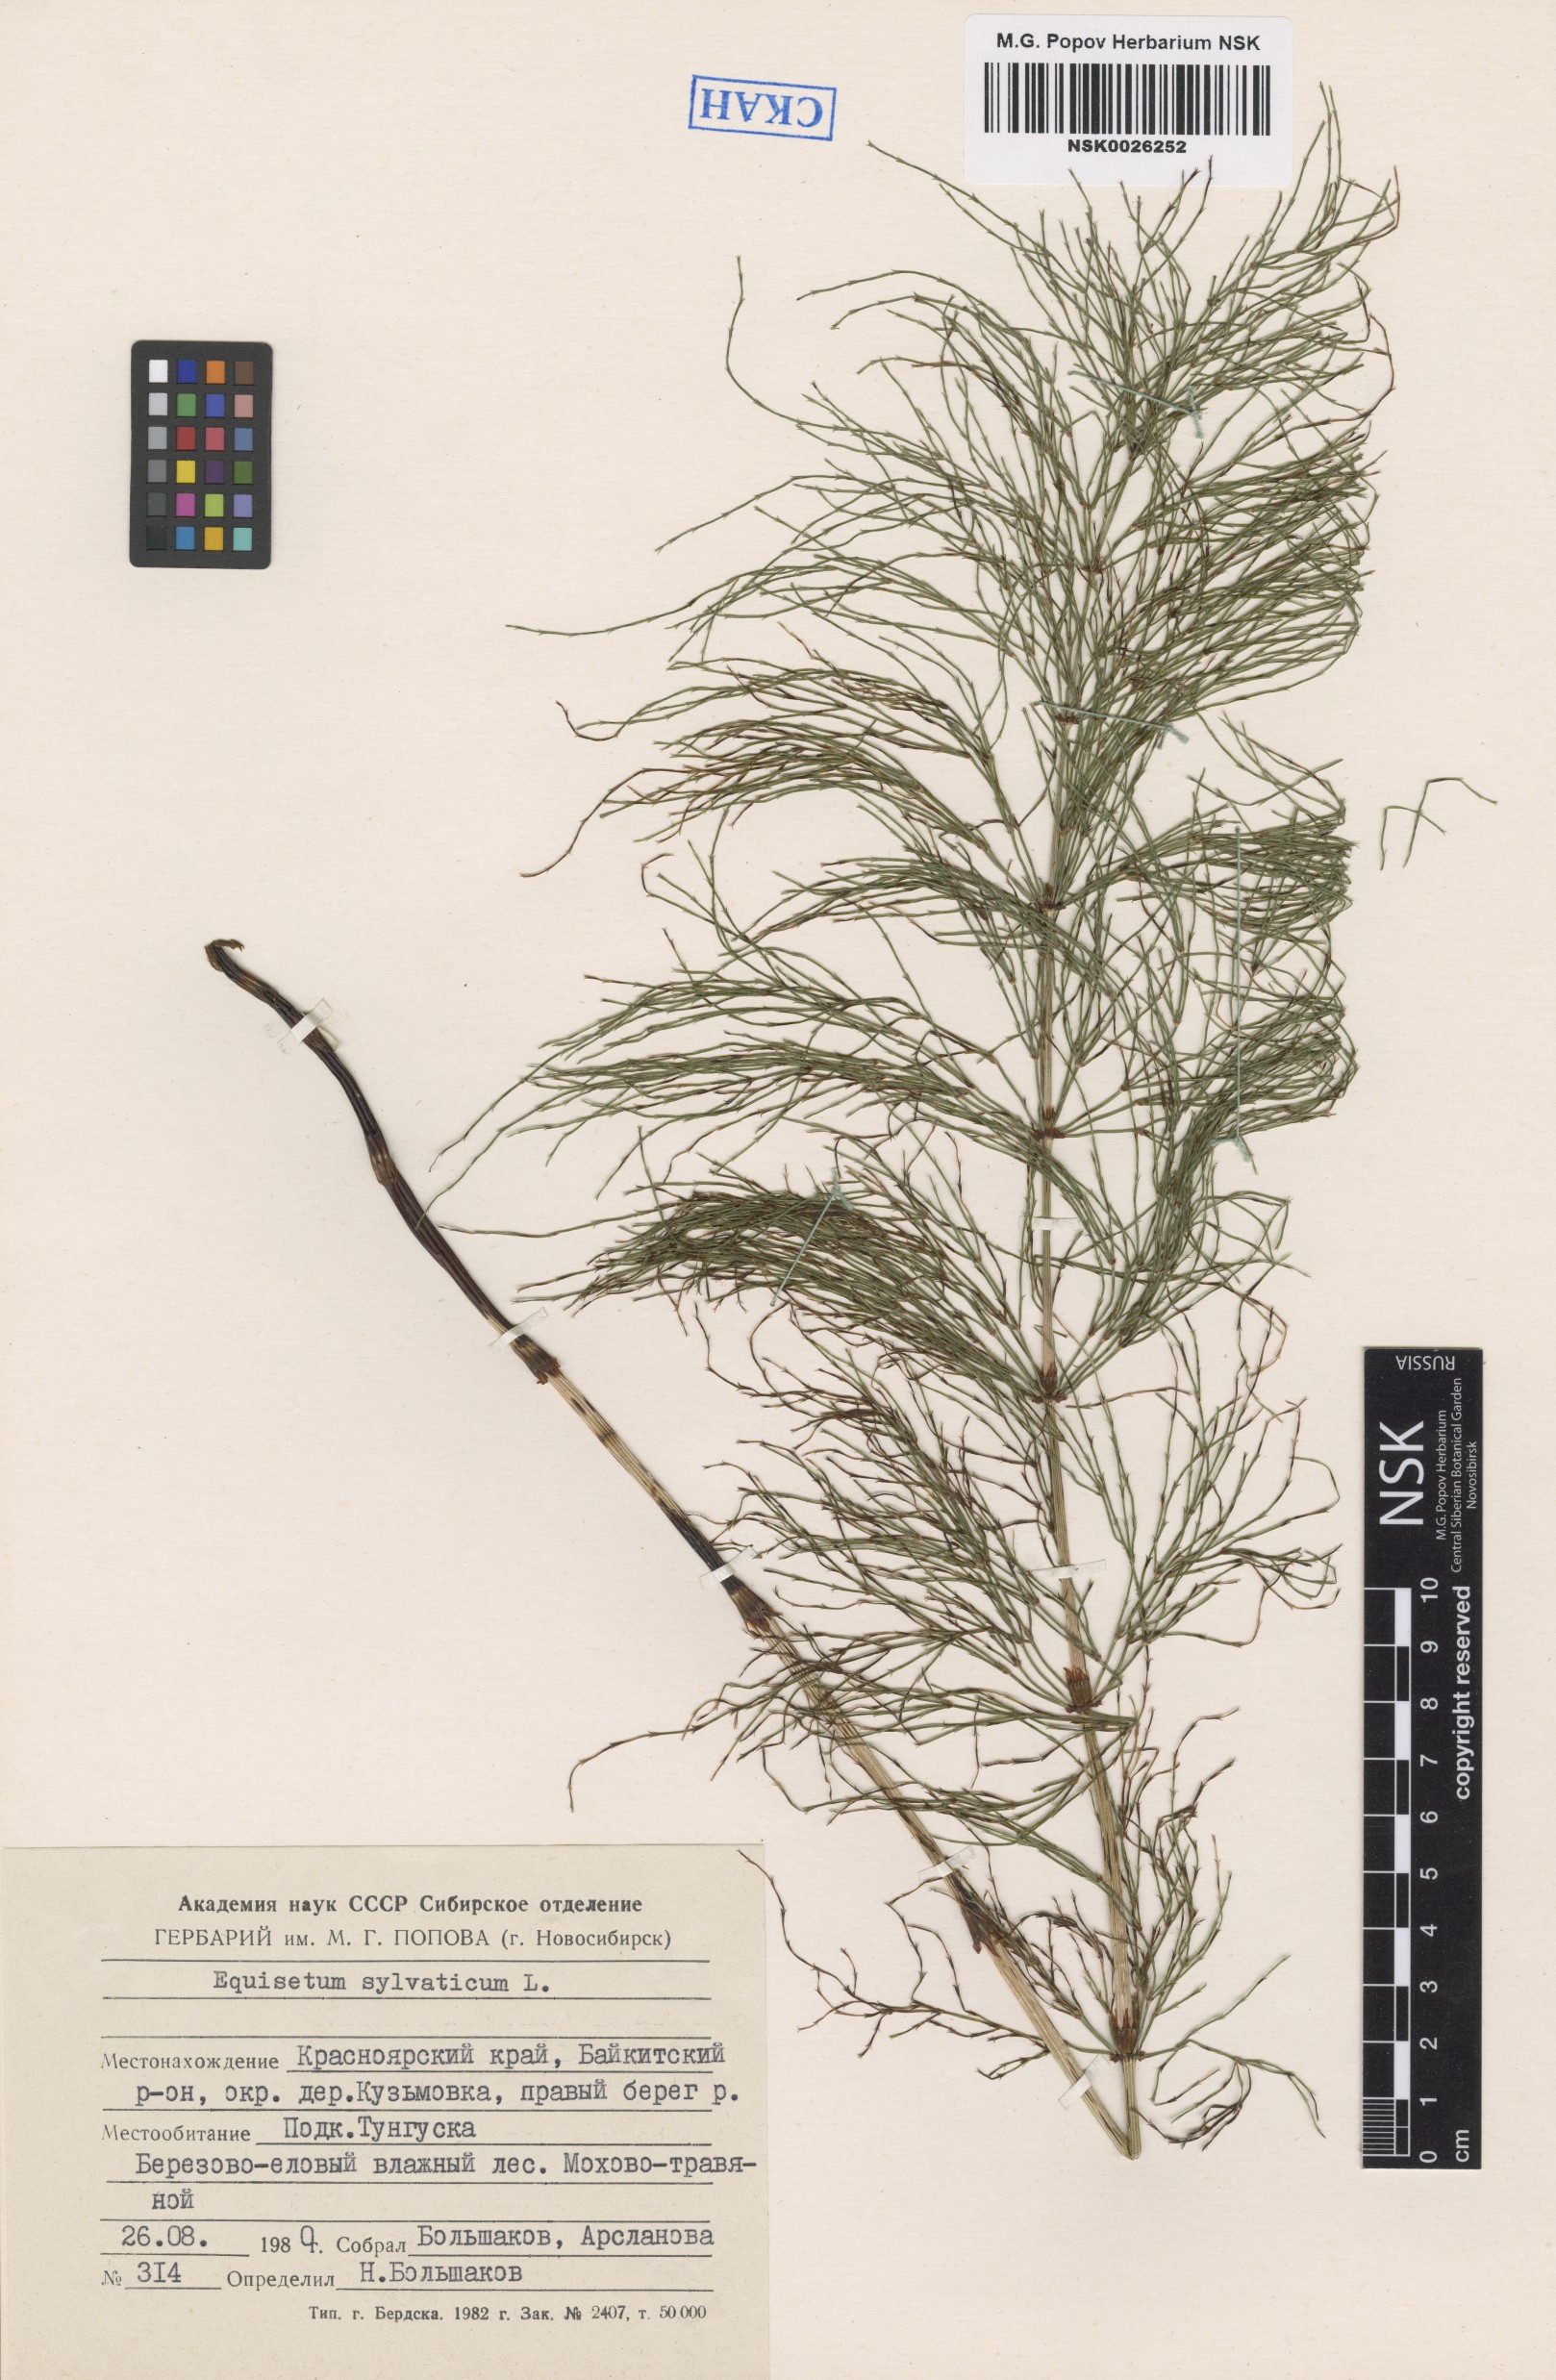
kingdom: Plantae
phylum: Tracheophyta
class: Polypodiopsida
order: Equisetales
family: Equisetaceae
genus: Equisetum
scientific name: Equisetum sylvaticum
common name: Wood horsetail
